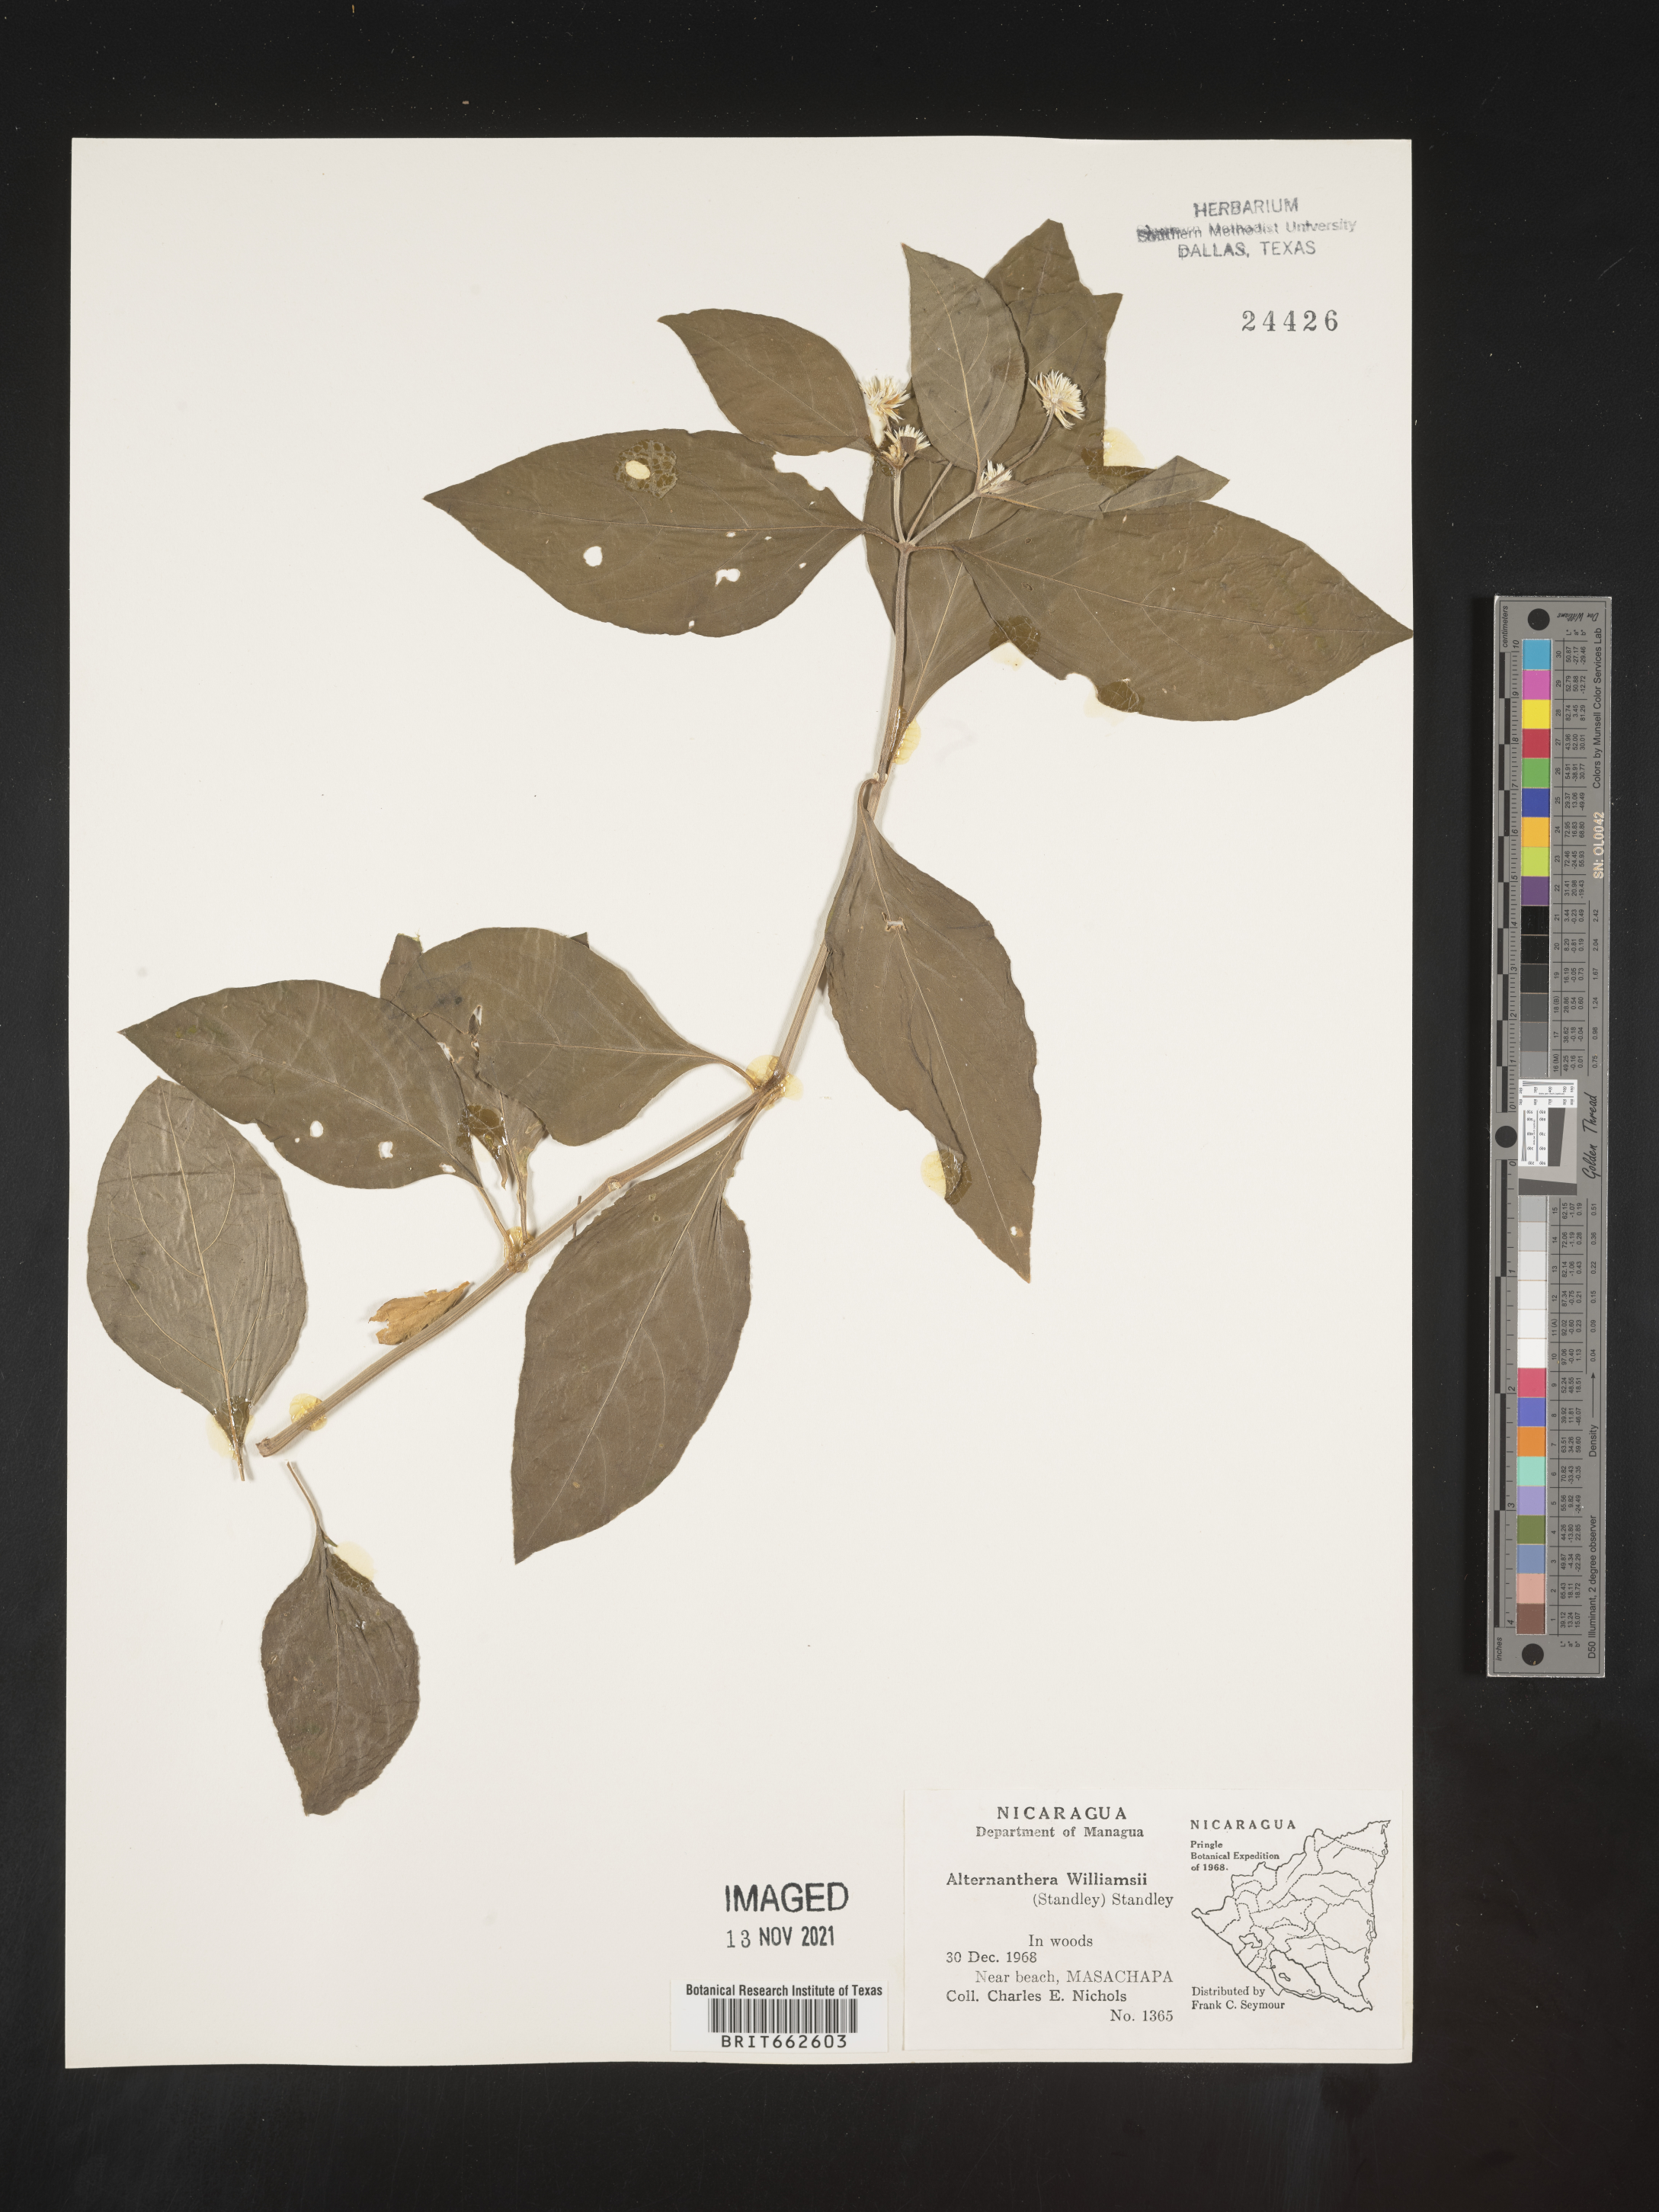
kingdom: Plantae
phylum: Tracheophyta
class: Magnoliopsida
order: Caryophyllales
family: Amaranthaceae
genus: Alternanthera
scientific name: Alternanthera
